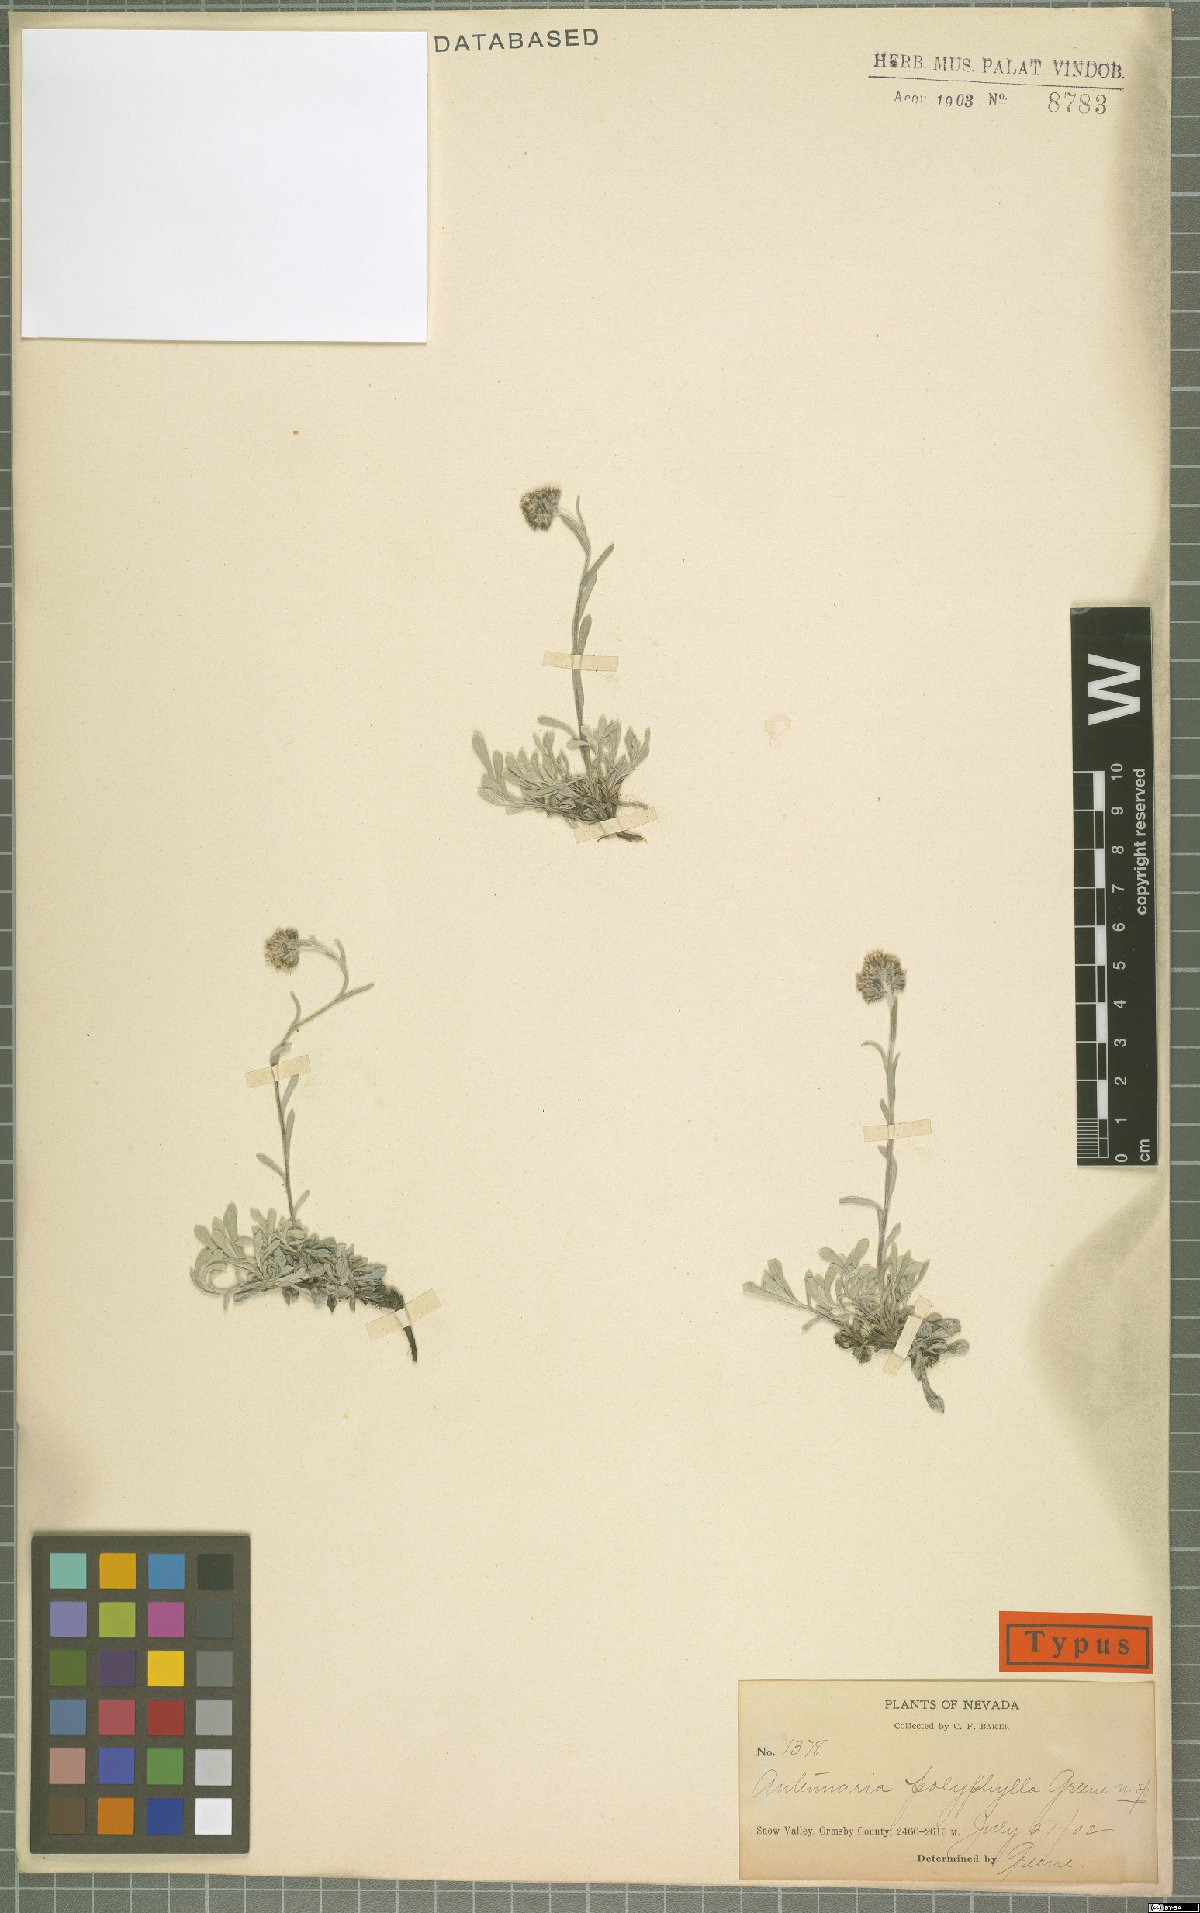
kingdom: Plantae
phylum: Tracheophyta
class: Magnoliopsida
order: Asterales
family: Asteraceae
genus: Antennaria
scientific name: Antennaria rosea
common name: Rosy pussytoes
